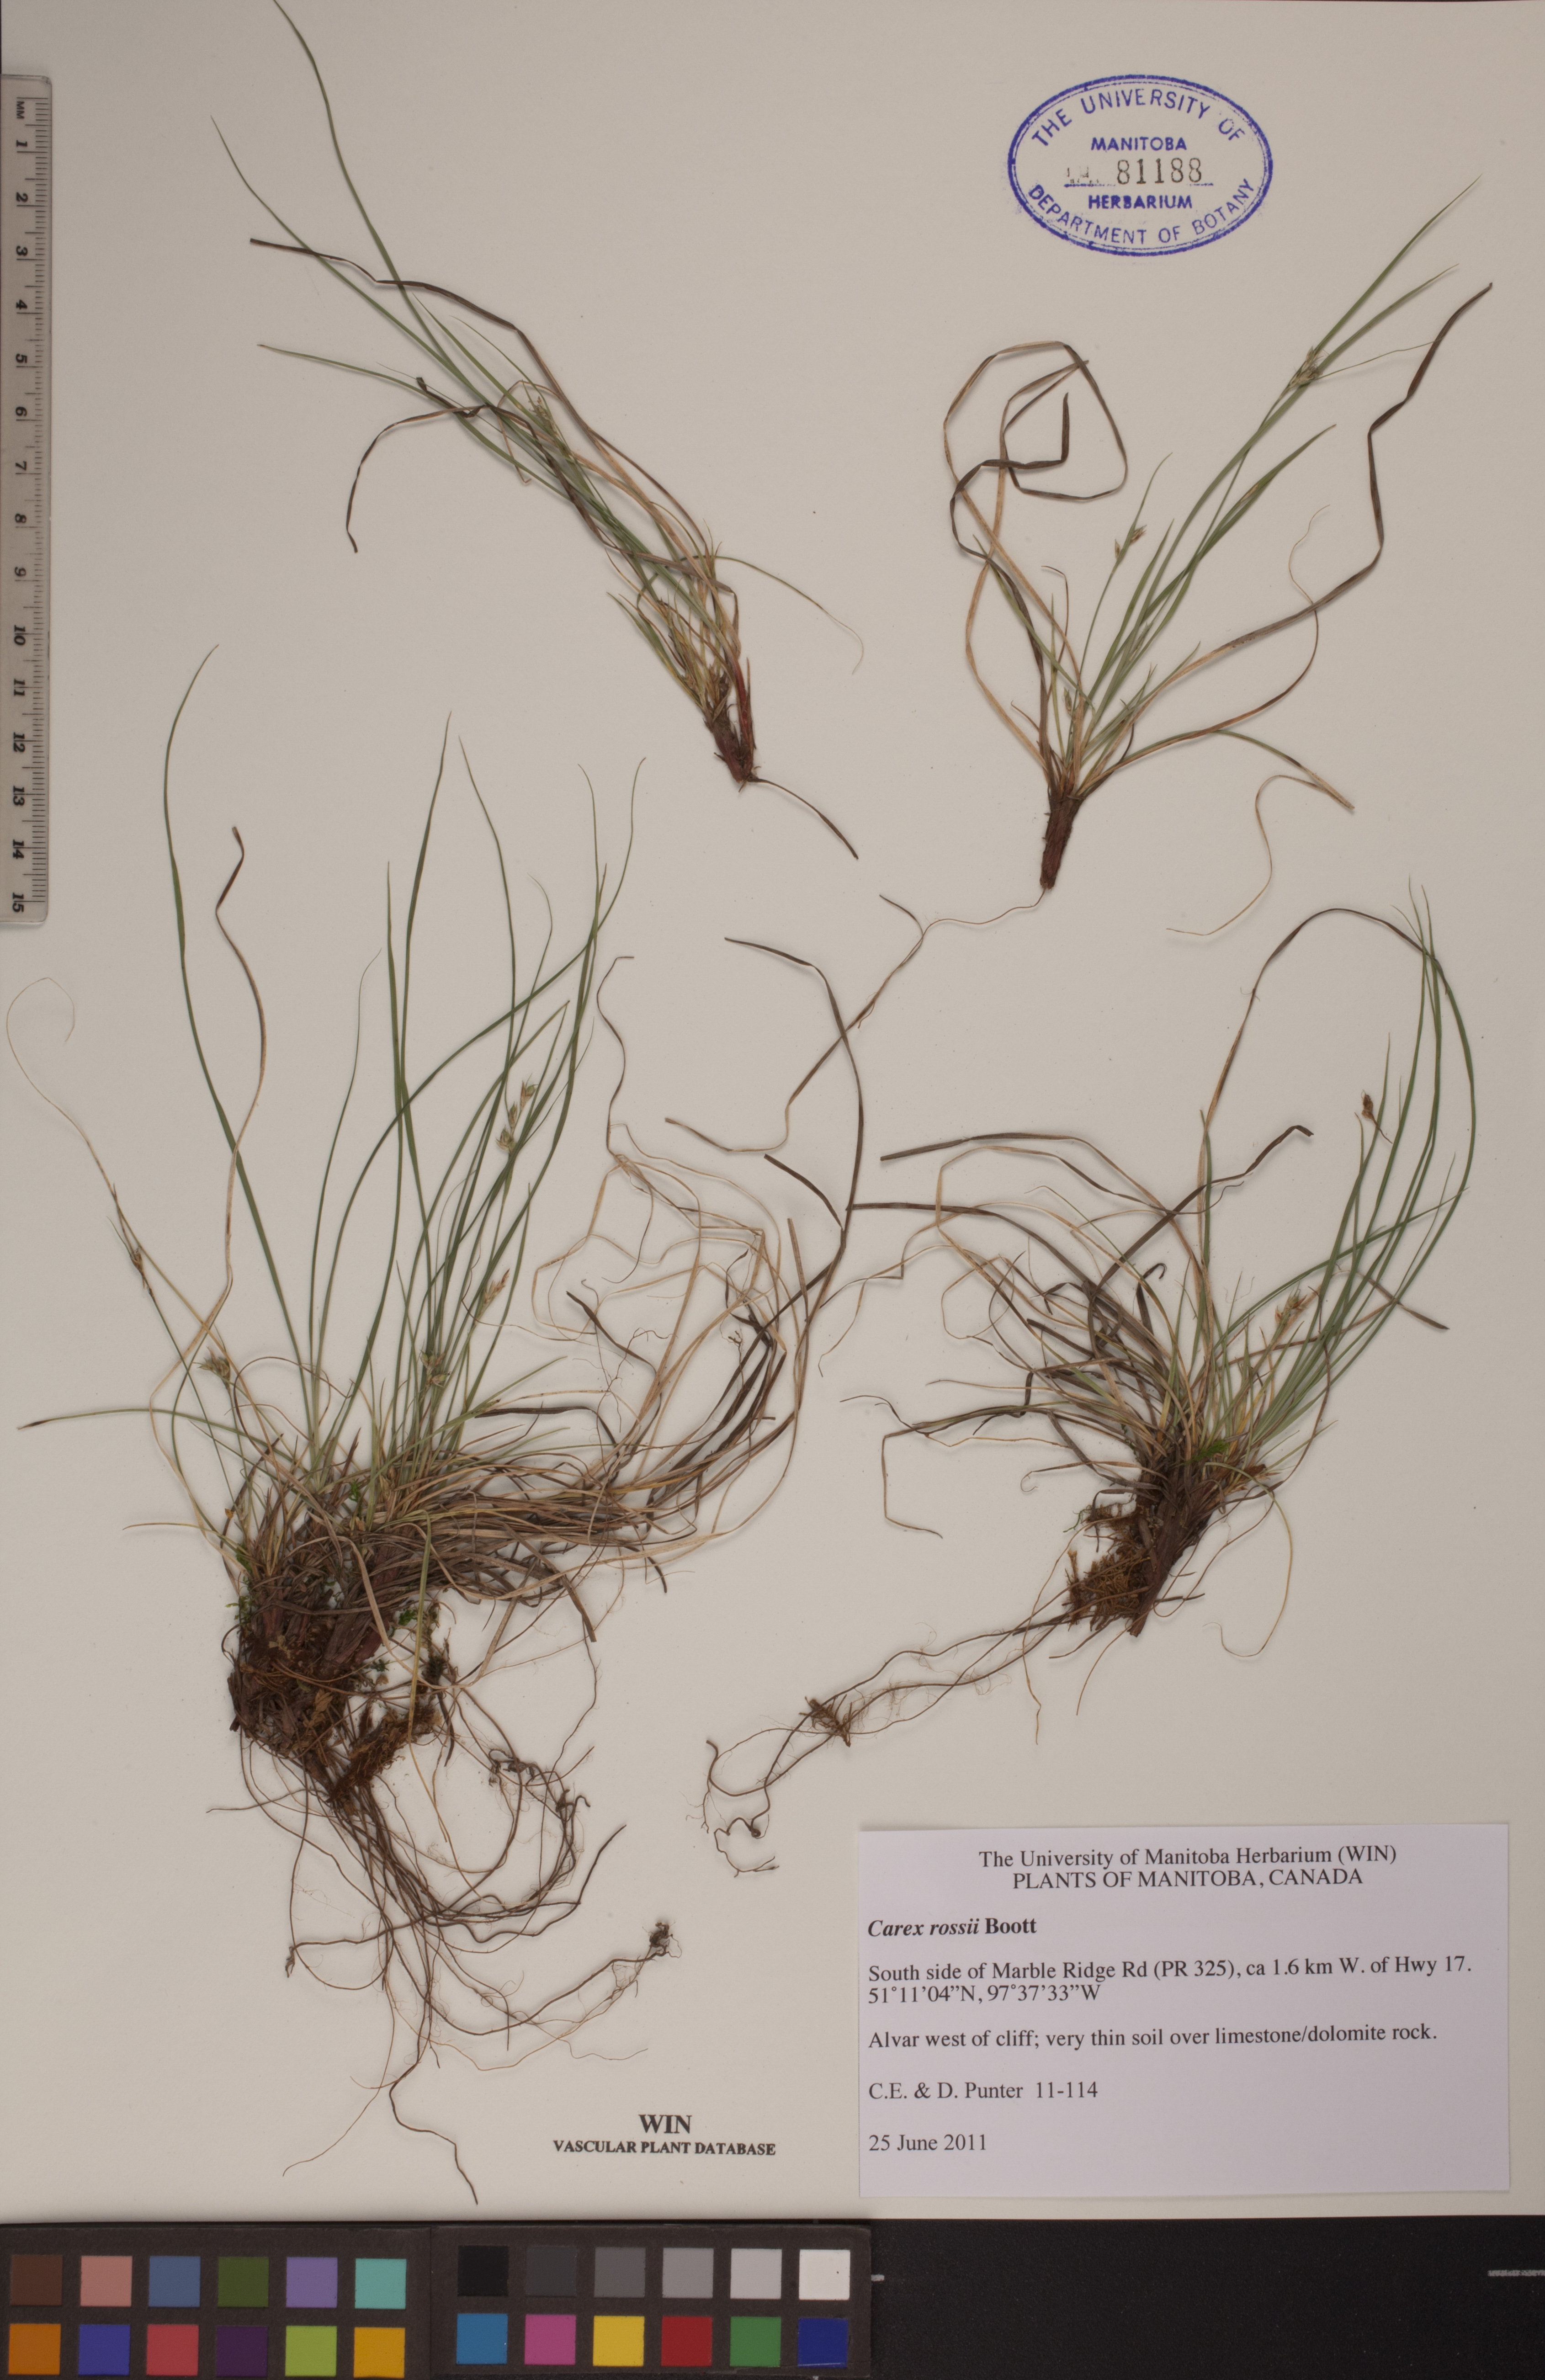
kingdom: Plantae
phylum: Tracheophyta
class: Liliopsida
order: Poales
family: Cyperaceae
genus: Carex
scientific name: Carex rossii
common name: Ross' sedge
